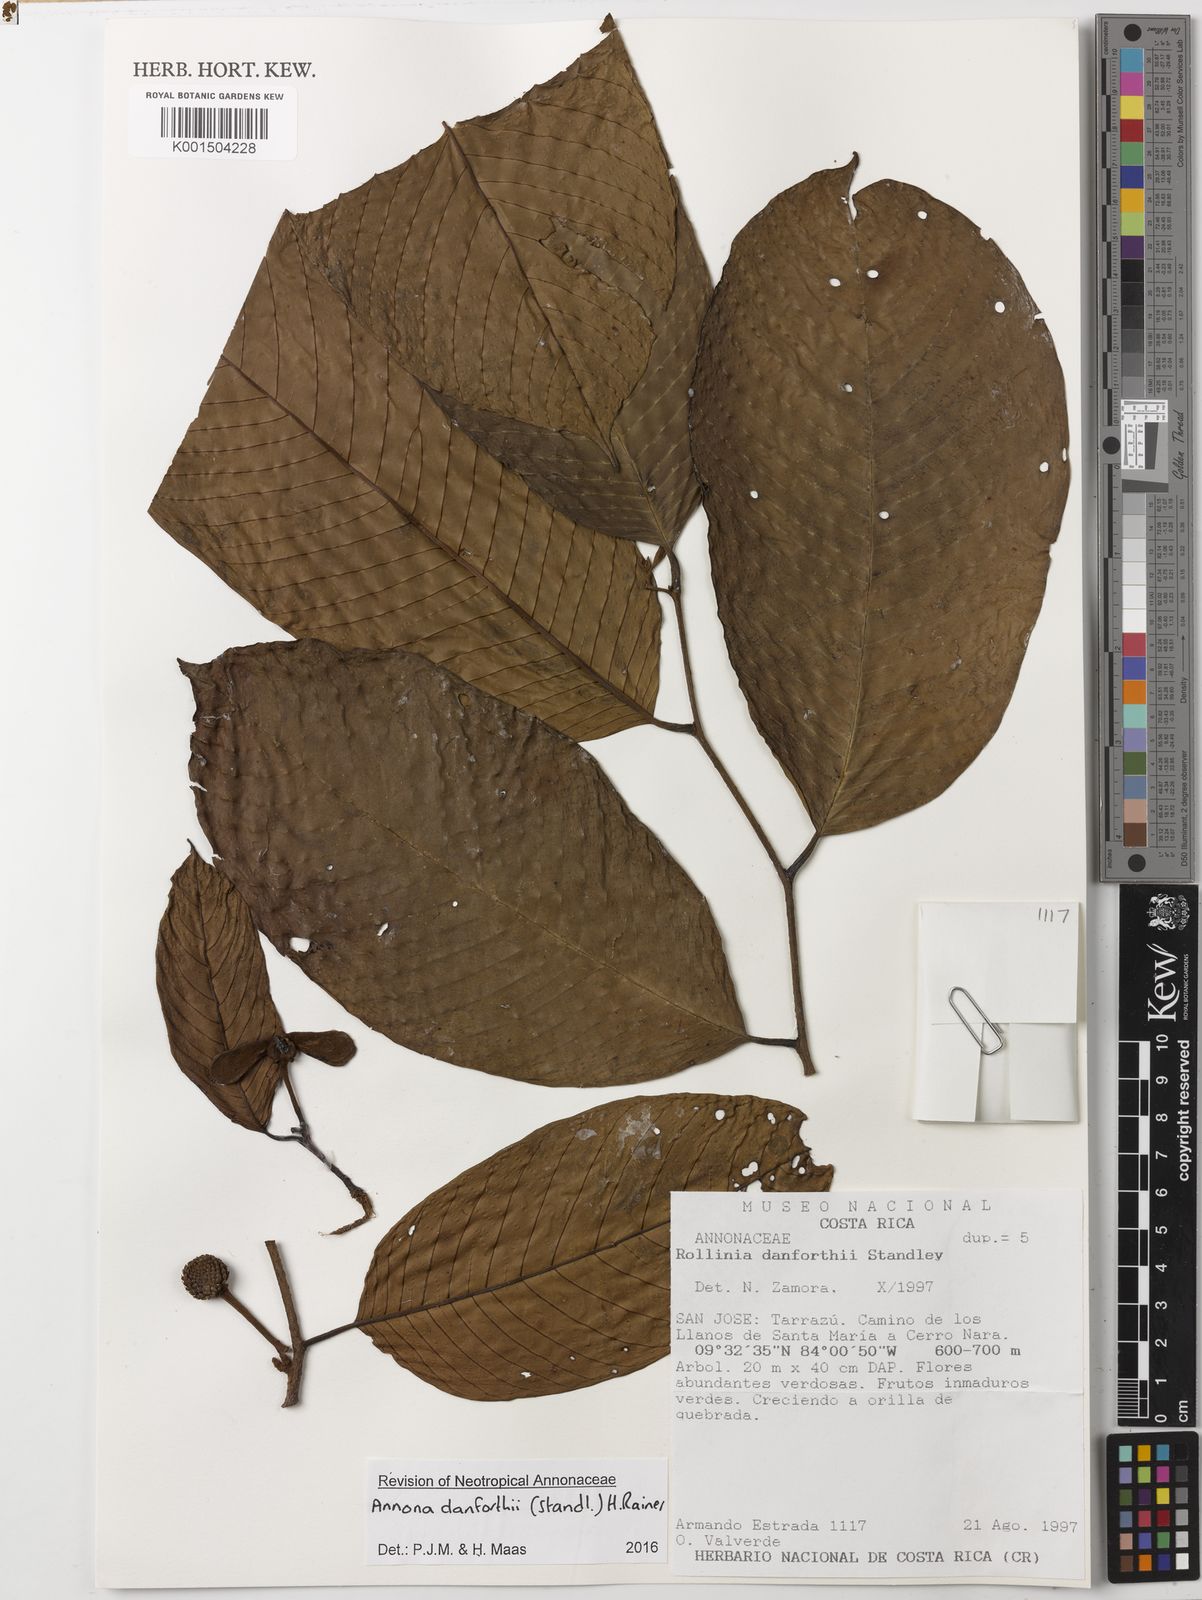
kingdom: Plantae
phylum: Tracheophyta
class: Magnoliopsida
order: Magnoliales
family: Annonaceae
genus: Annona
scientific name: Annona danforthii
